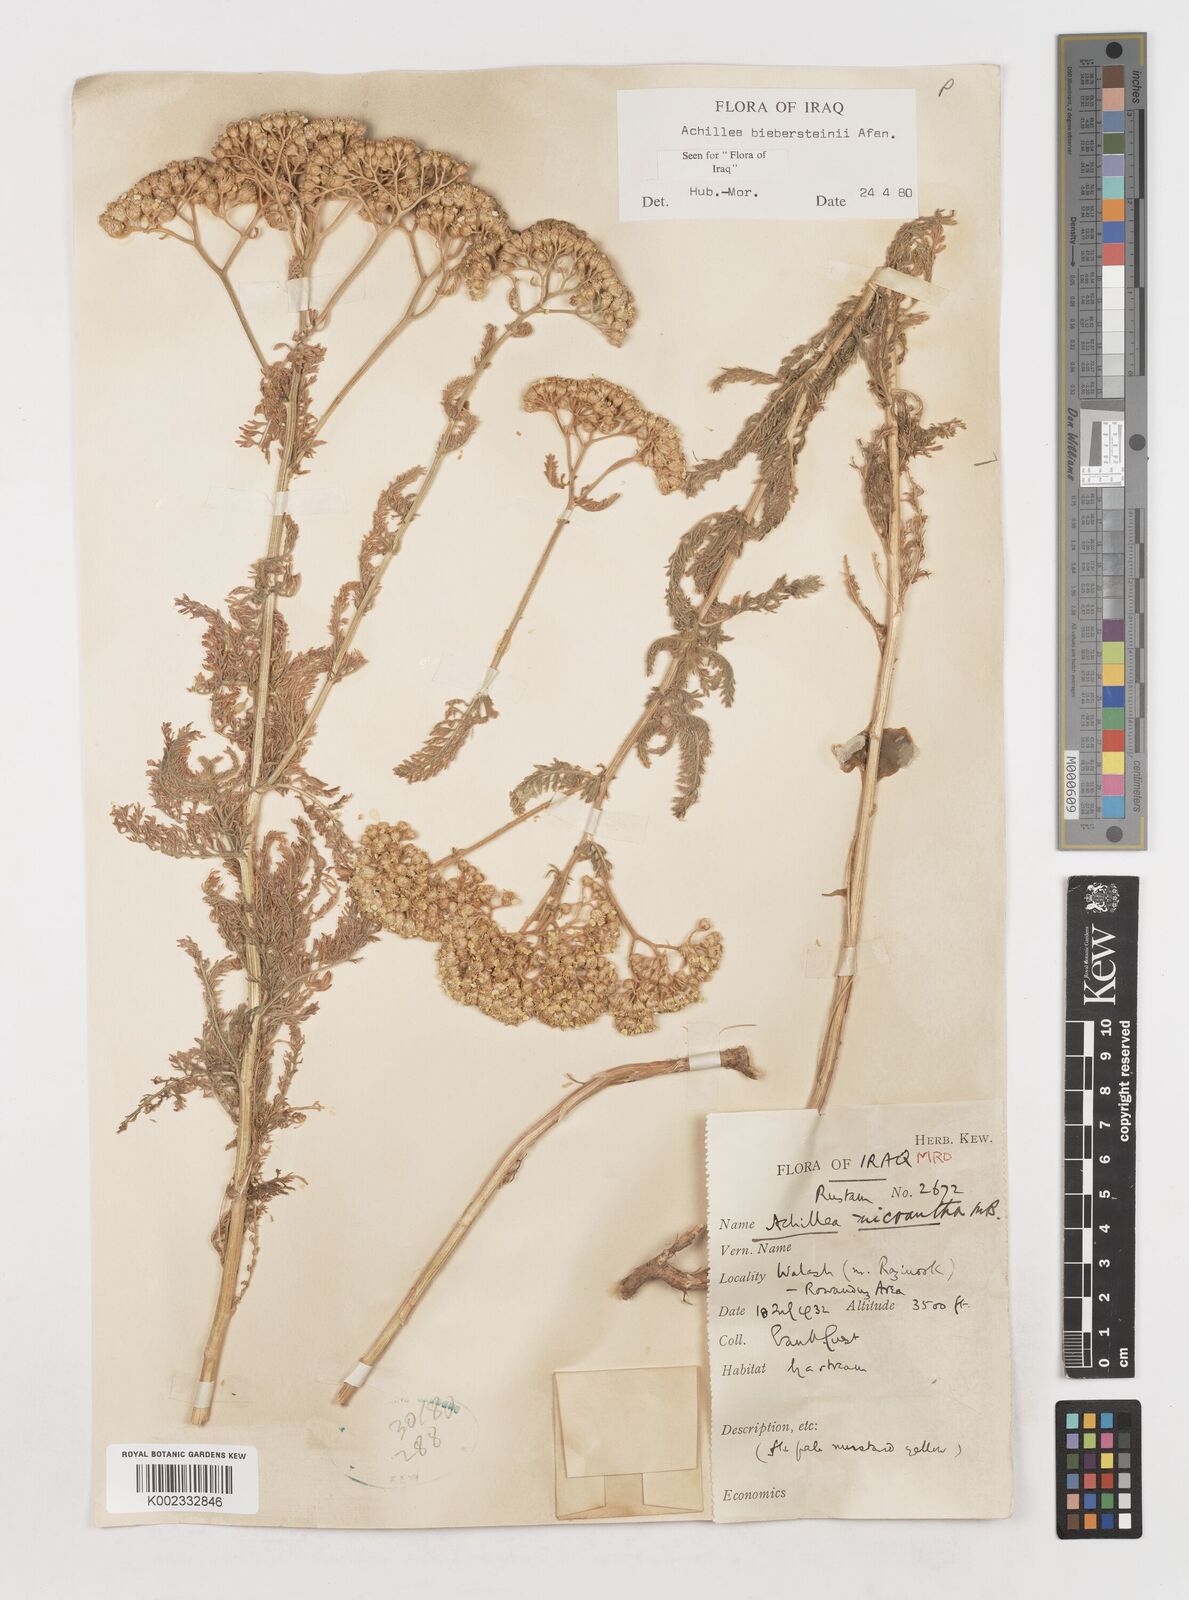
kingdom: Plantae
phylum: Tracheophyta
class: Magnoliopsida
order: Asterales
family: Asteraceae
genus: Achillea
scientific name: Achillea arabica
